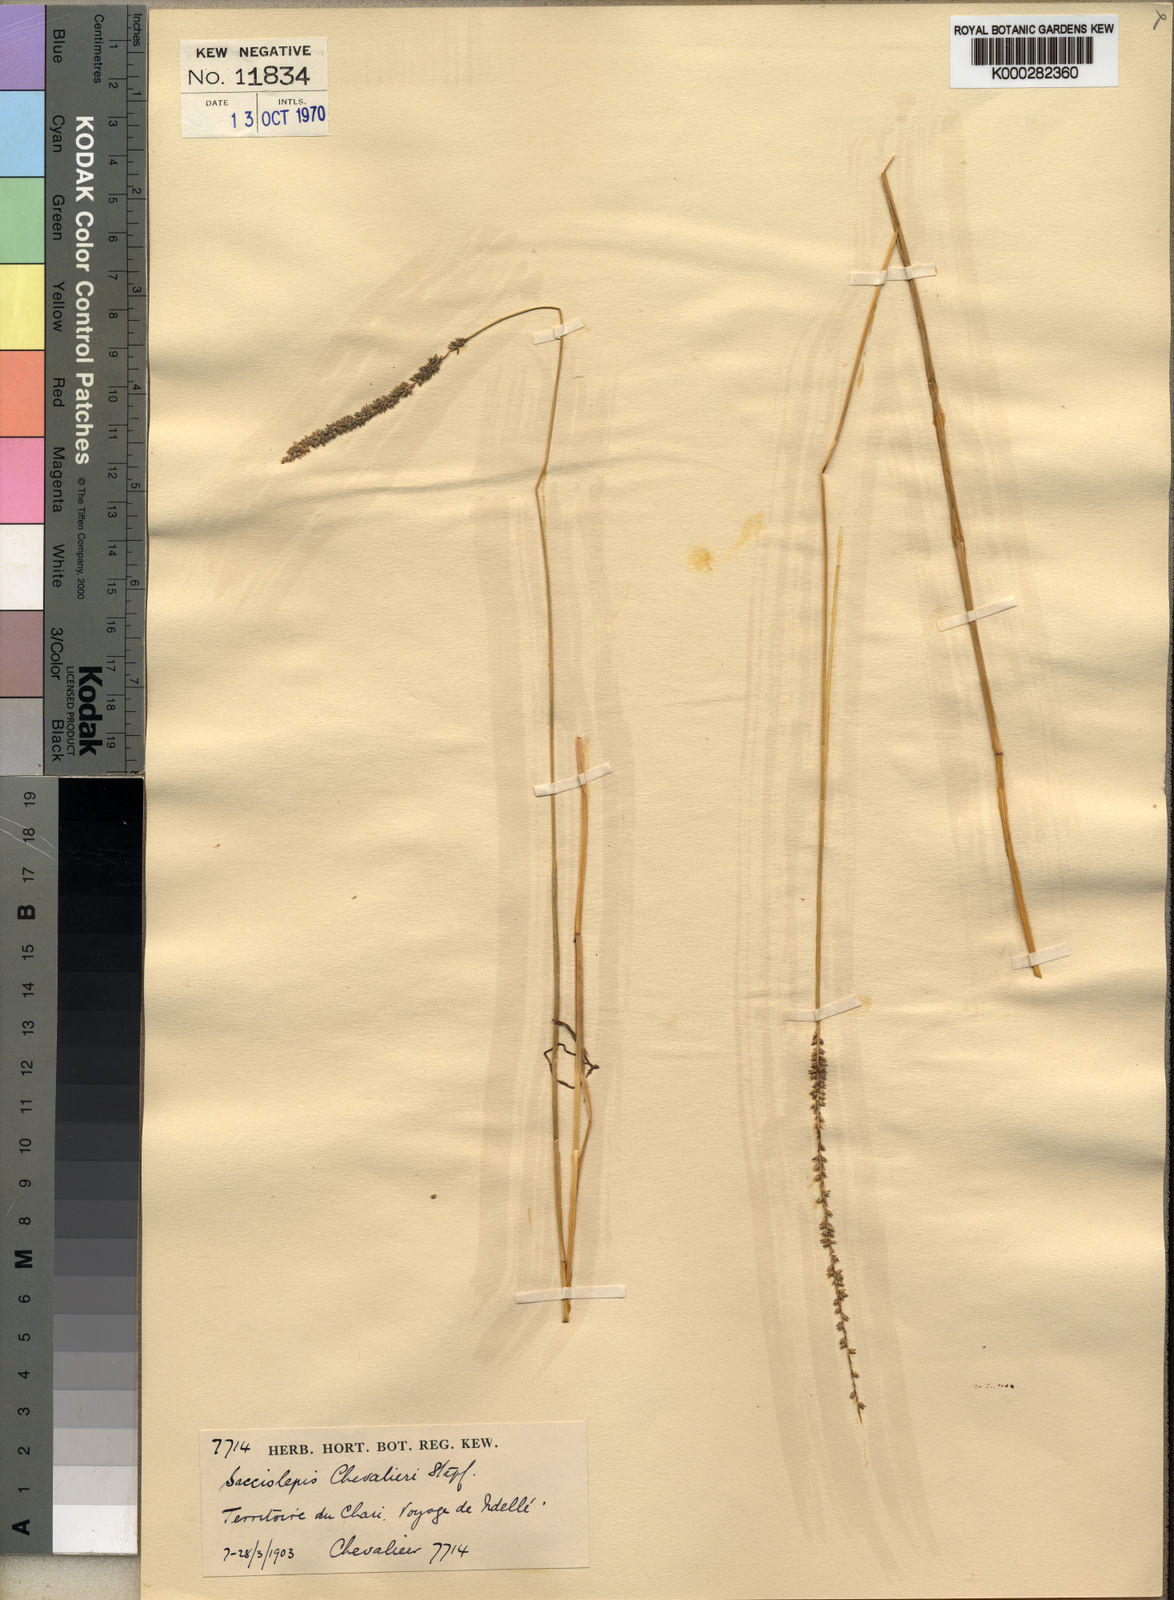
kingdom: Plantae
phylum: Tracheophyta
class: Liliopsida
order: Poales
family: Poaceae
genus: Sacciolepis
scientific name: Sacciolepis chevalieri
